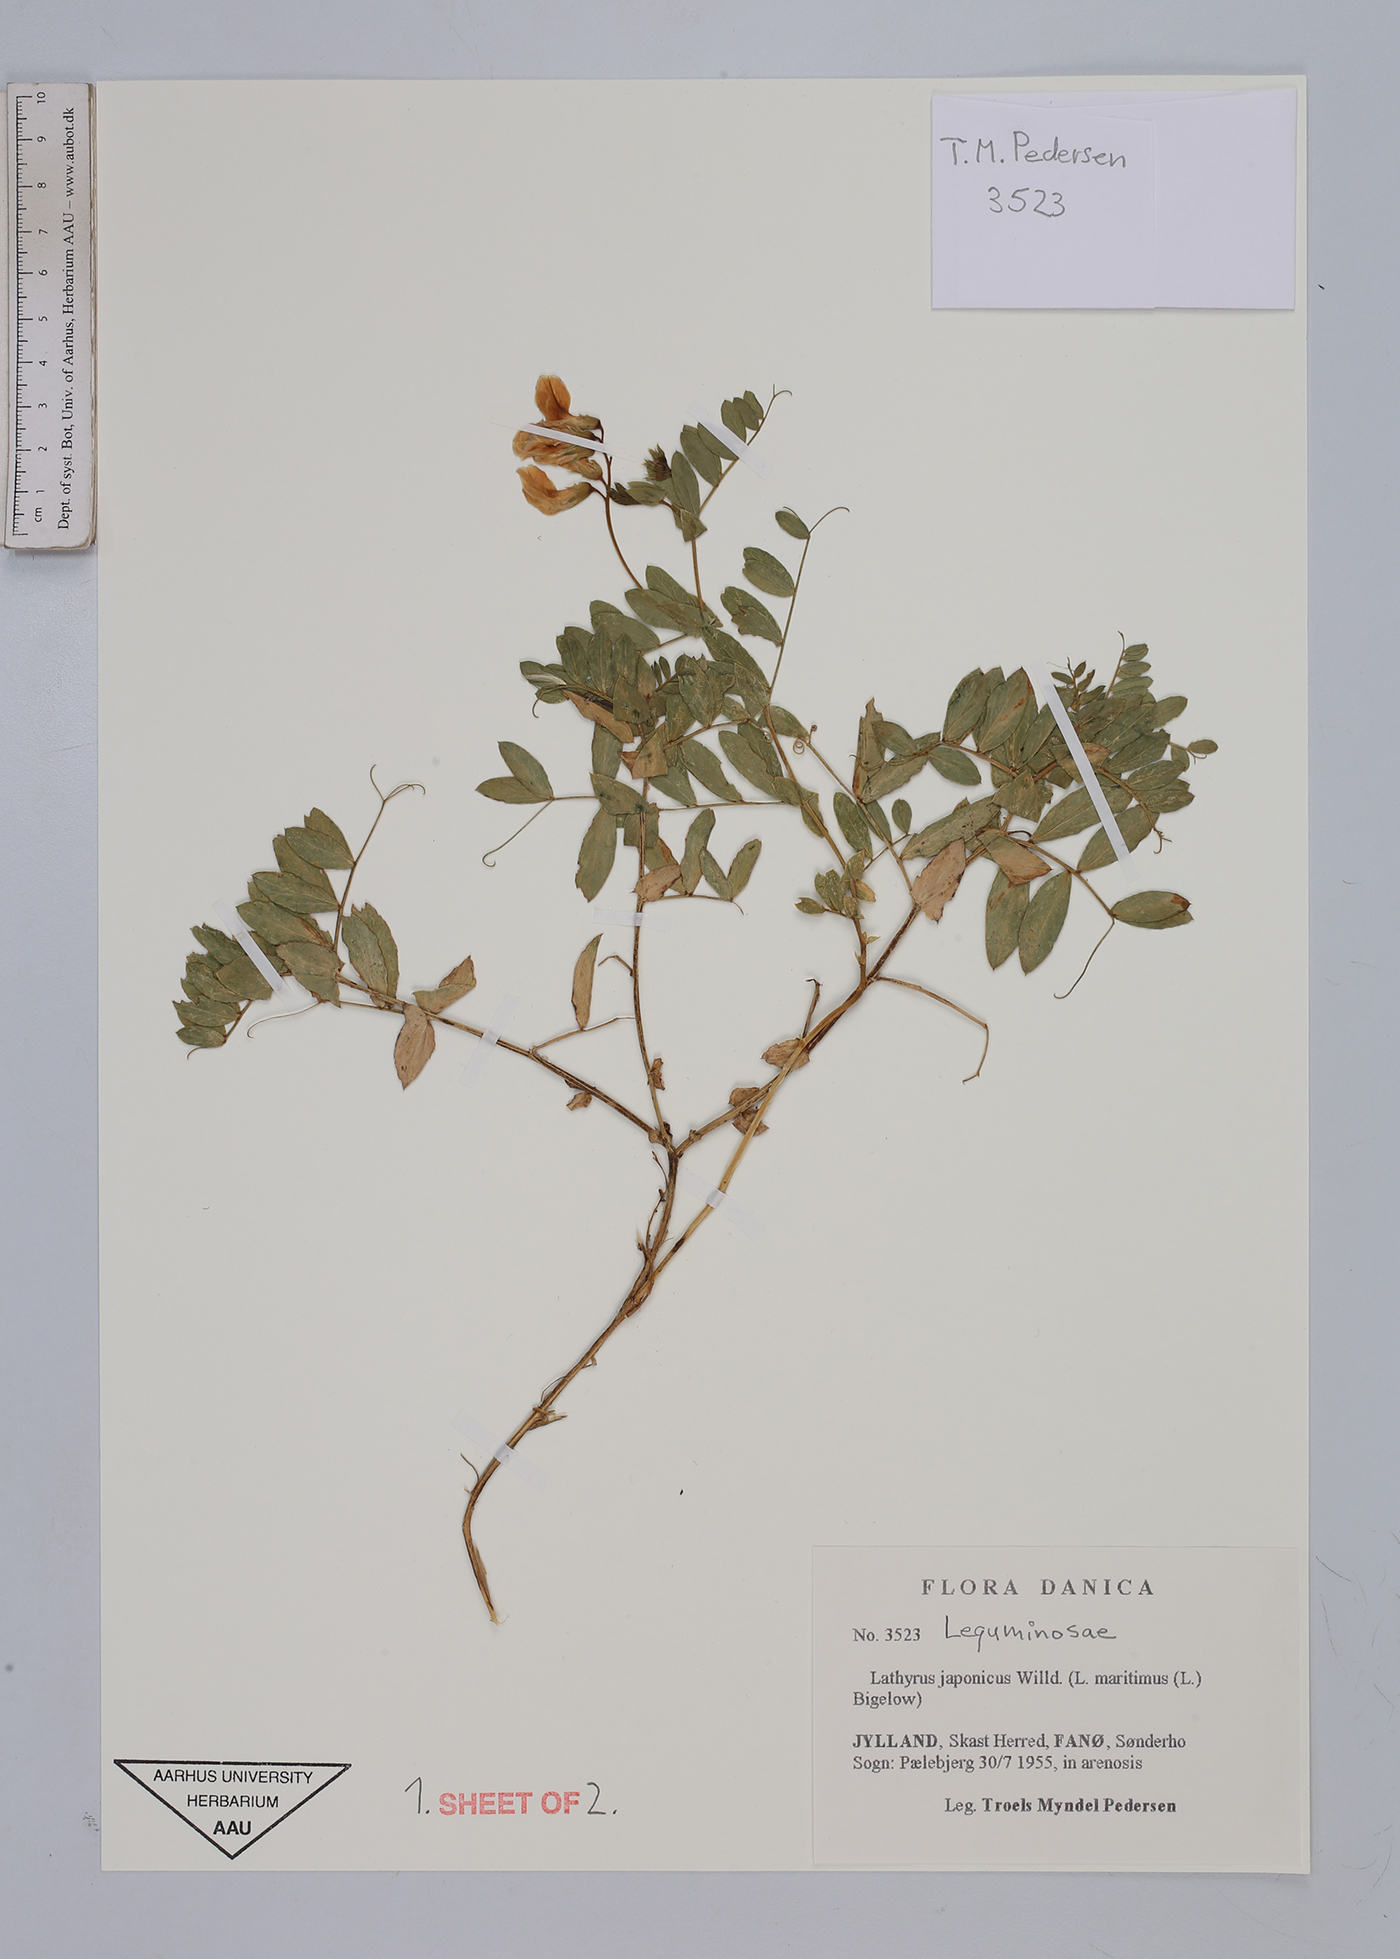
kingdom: Plantae
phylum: Tracheophyta
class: Magnoliopsida
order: Fabales
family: Fabaceae
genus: Lathyrus
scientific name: Lathyrus japonicus
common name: Sea pea
